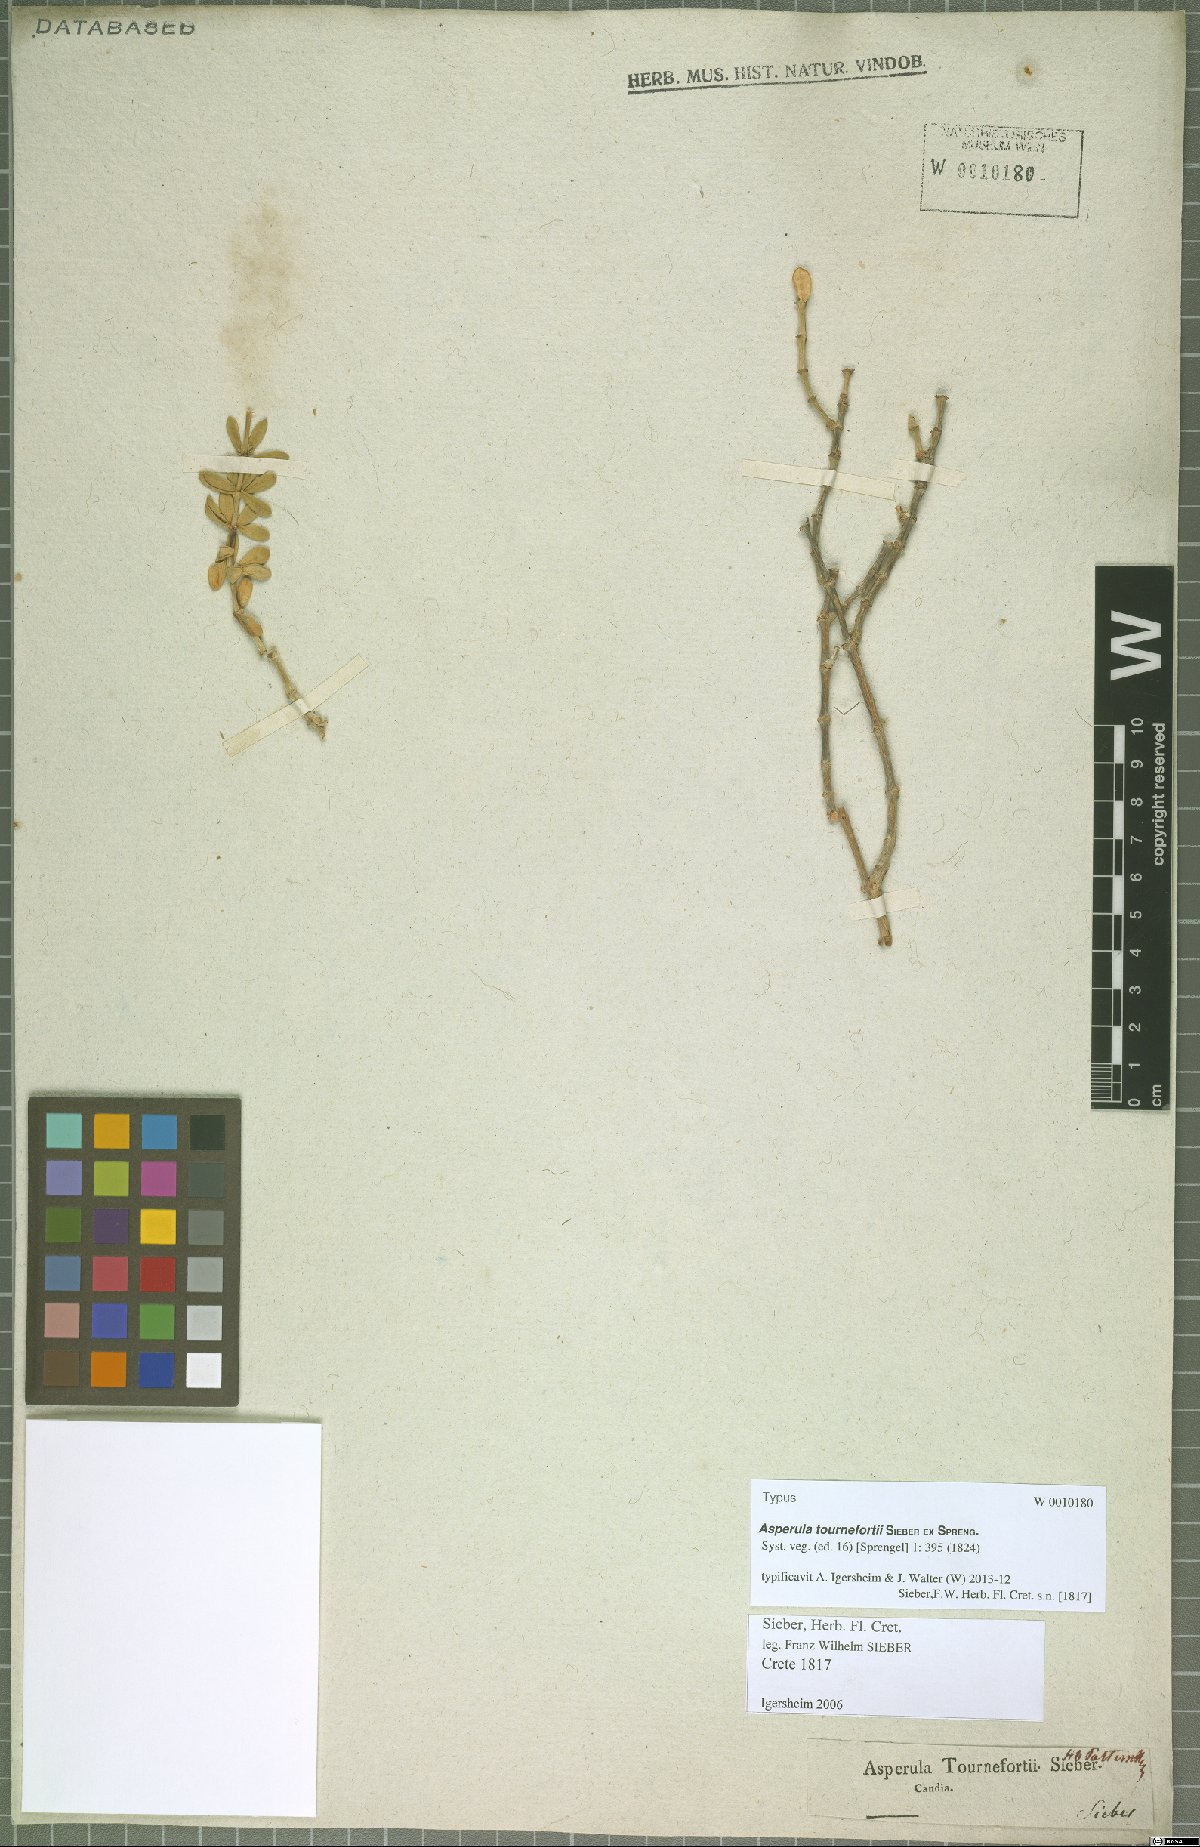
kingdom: Plantae
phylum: Tracheophyta
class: Magnoliopsida
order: Gentianales
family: Rubiaceae
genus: Asperula
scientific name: Asperula tournefortii
